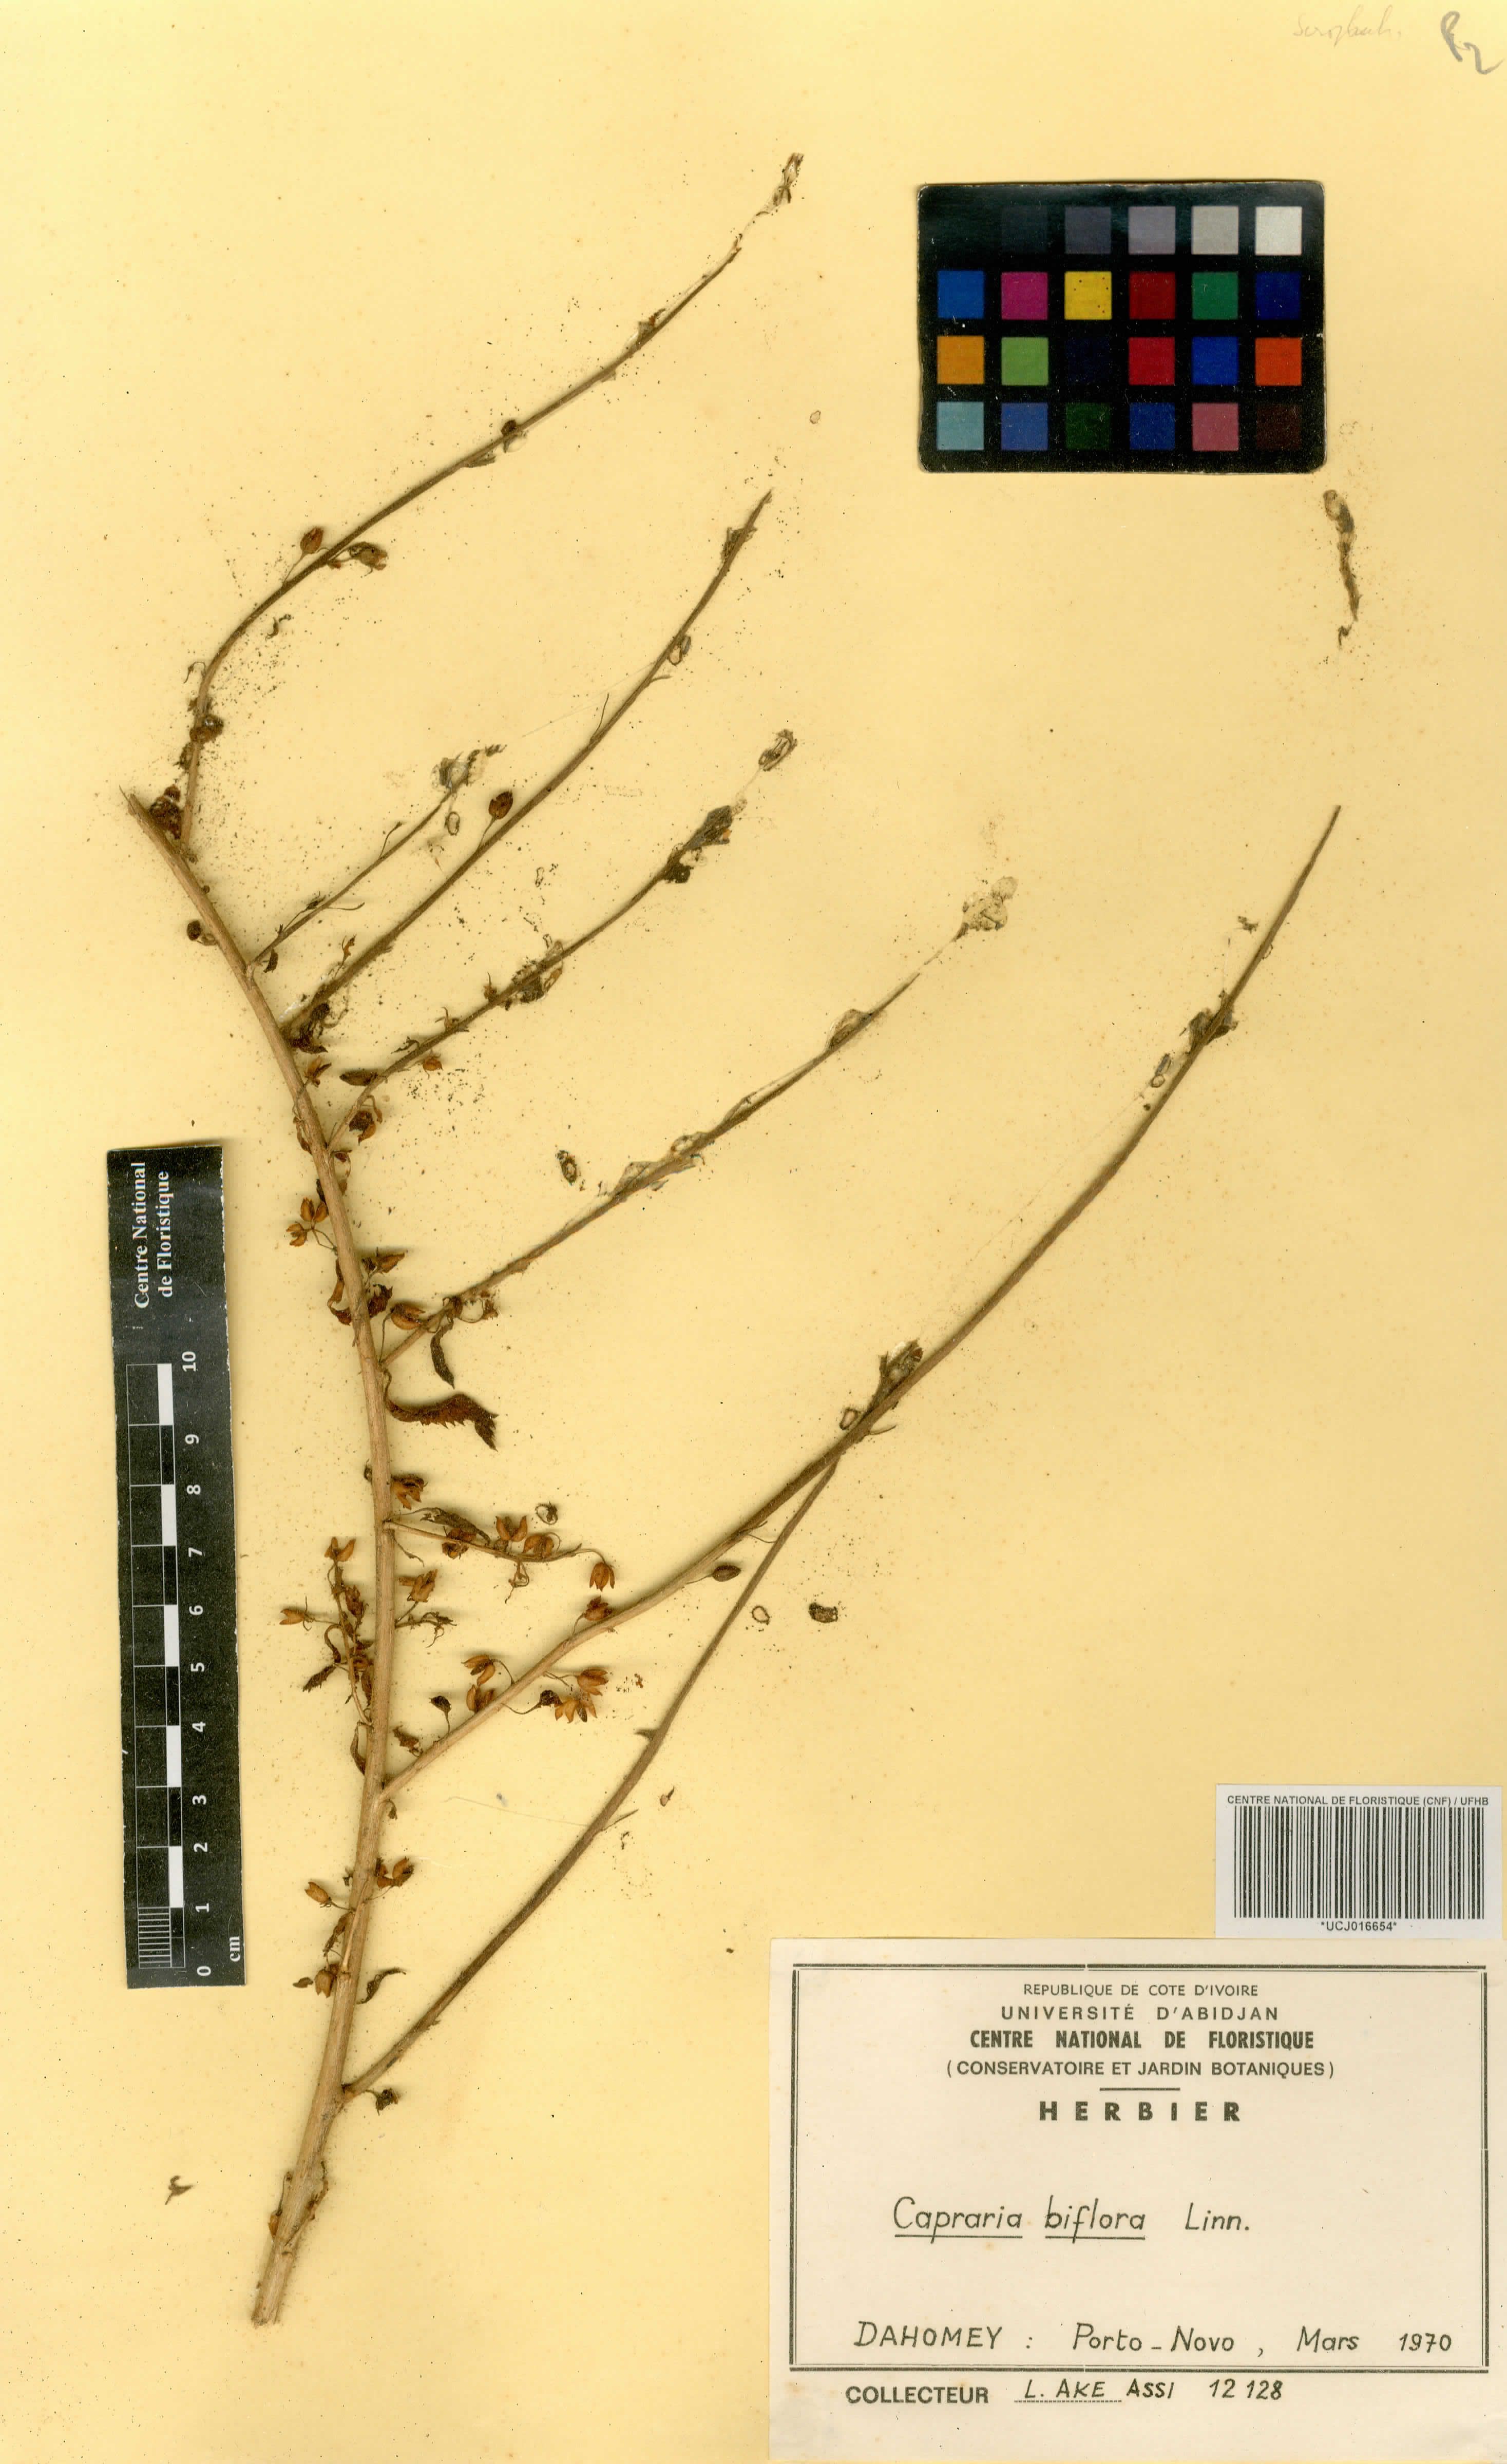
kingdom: Plantae
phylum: Tracheophyta
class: Magnoliopsida
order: Lamiales
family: Scrophulariaceae
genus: Capraria
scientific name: Capraria biflora
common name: Goatweed
